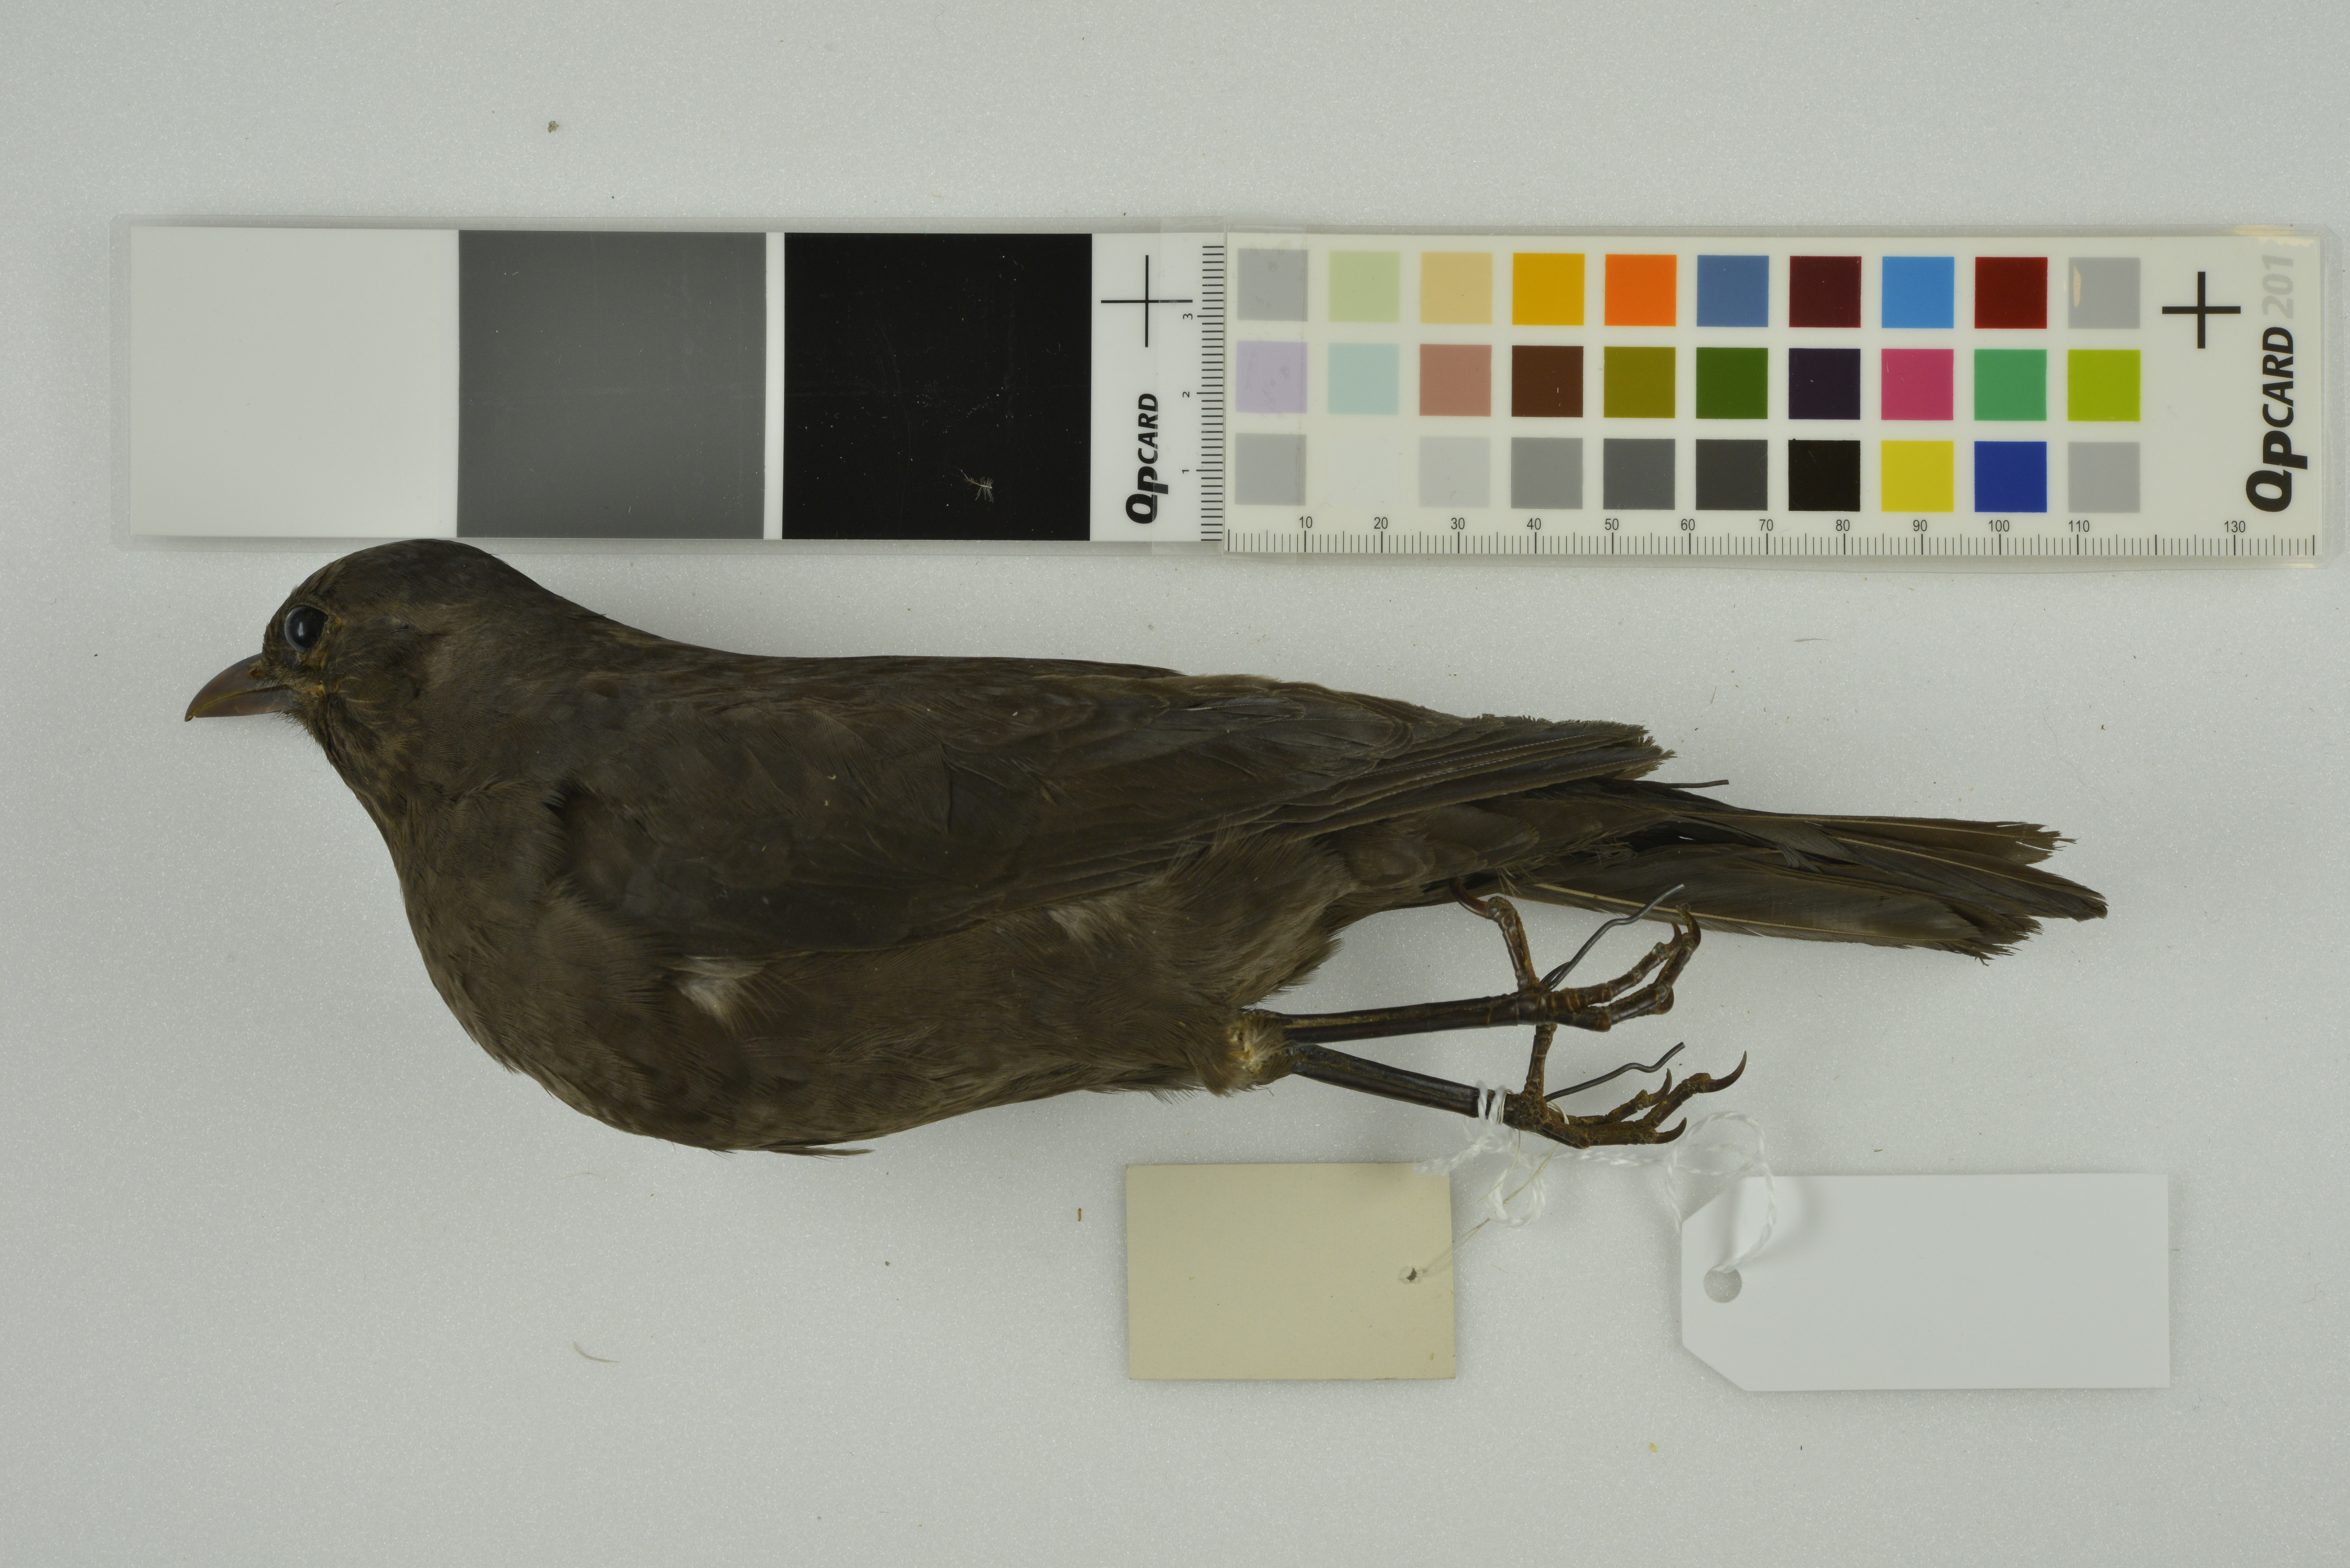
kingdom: Animalia
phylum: Chordata
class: Aves
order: Passeriformes
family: Turdidae
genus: Turdus
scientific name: Turdus merula
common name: Common blackbird
